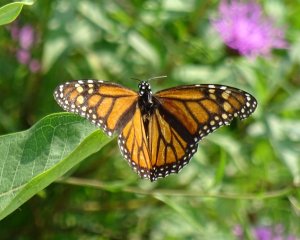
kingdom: Animalia
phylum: Arthropoda
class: Insecta
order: Lepidoptera
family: Nymphalidae
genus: Danaus
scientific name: Danaus plexippus
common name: Monarch
